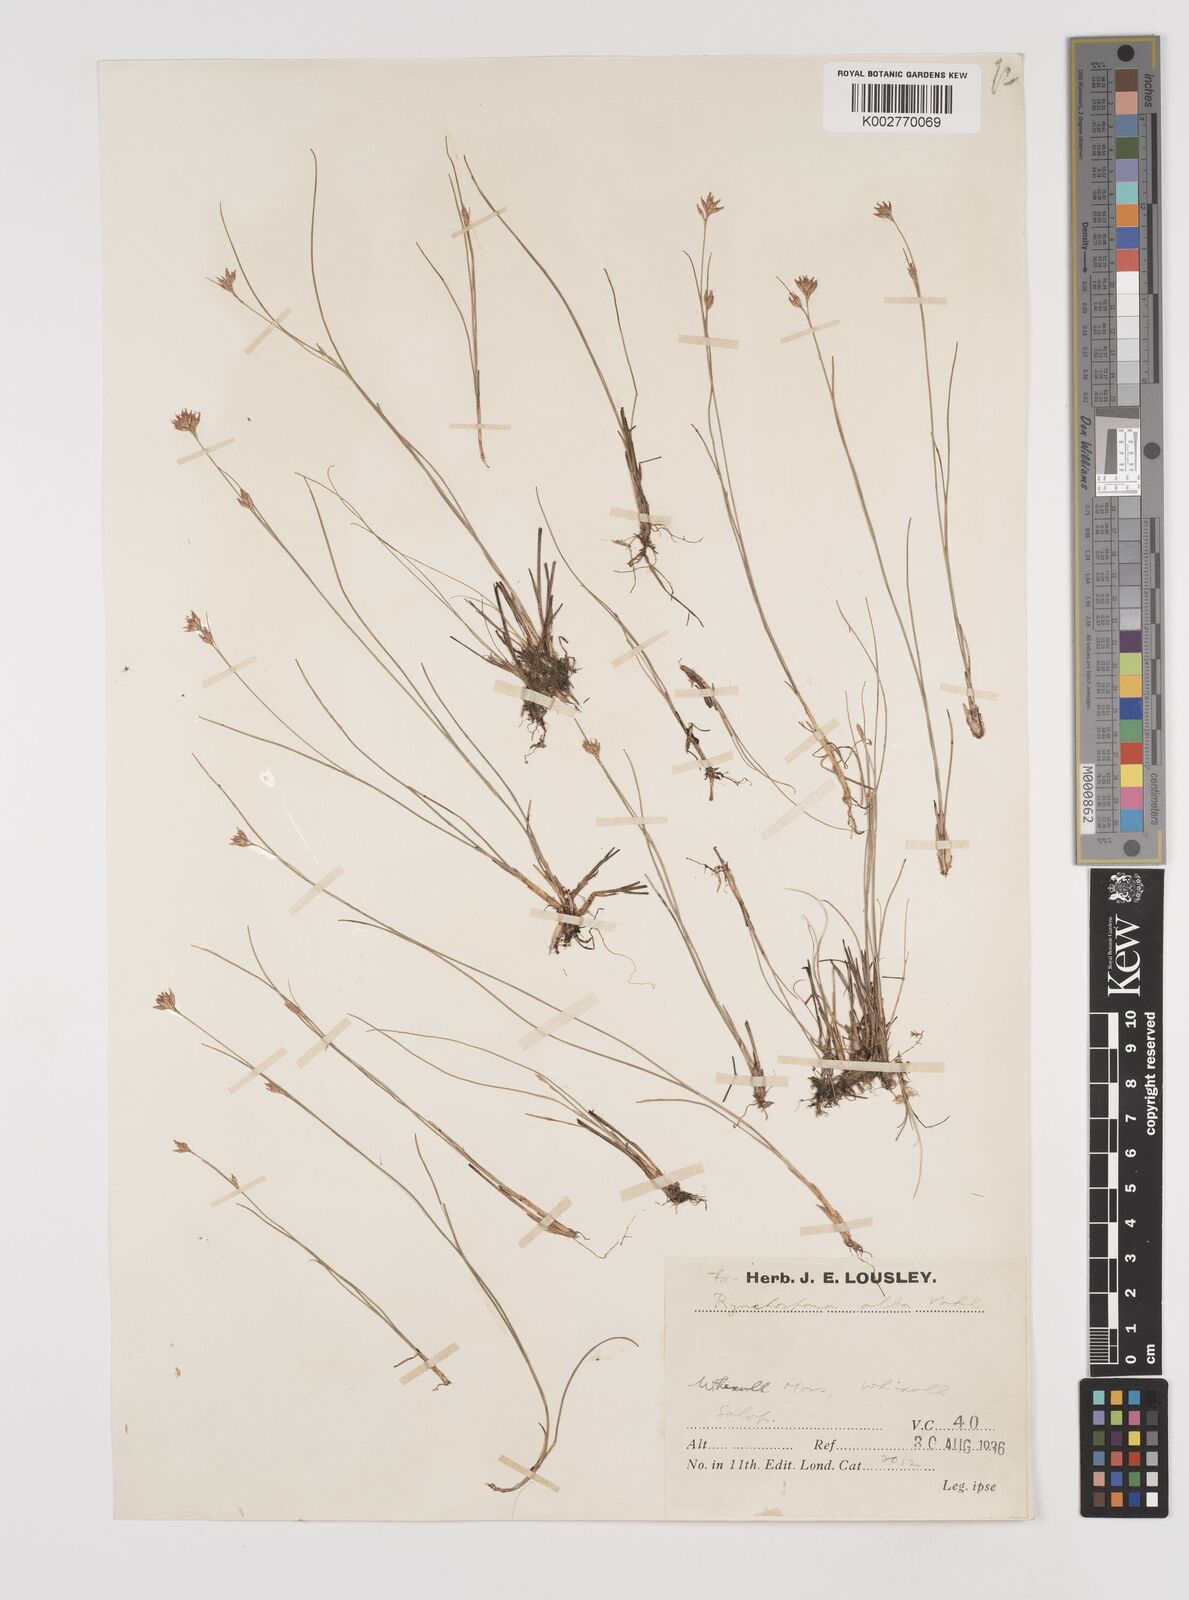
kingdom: Plantae
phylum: Tracheophyta
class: Liliopsida
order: Poales
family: Cyperaceae
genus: Rhynchospora
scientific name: Rhynchospora alba
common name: White beak-sedge
